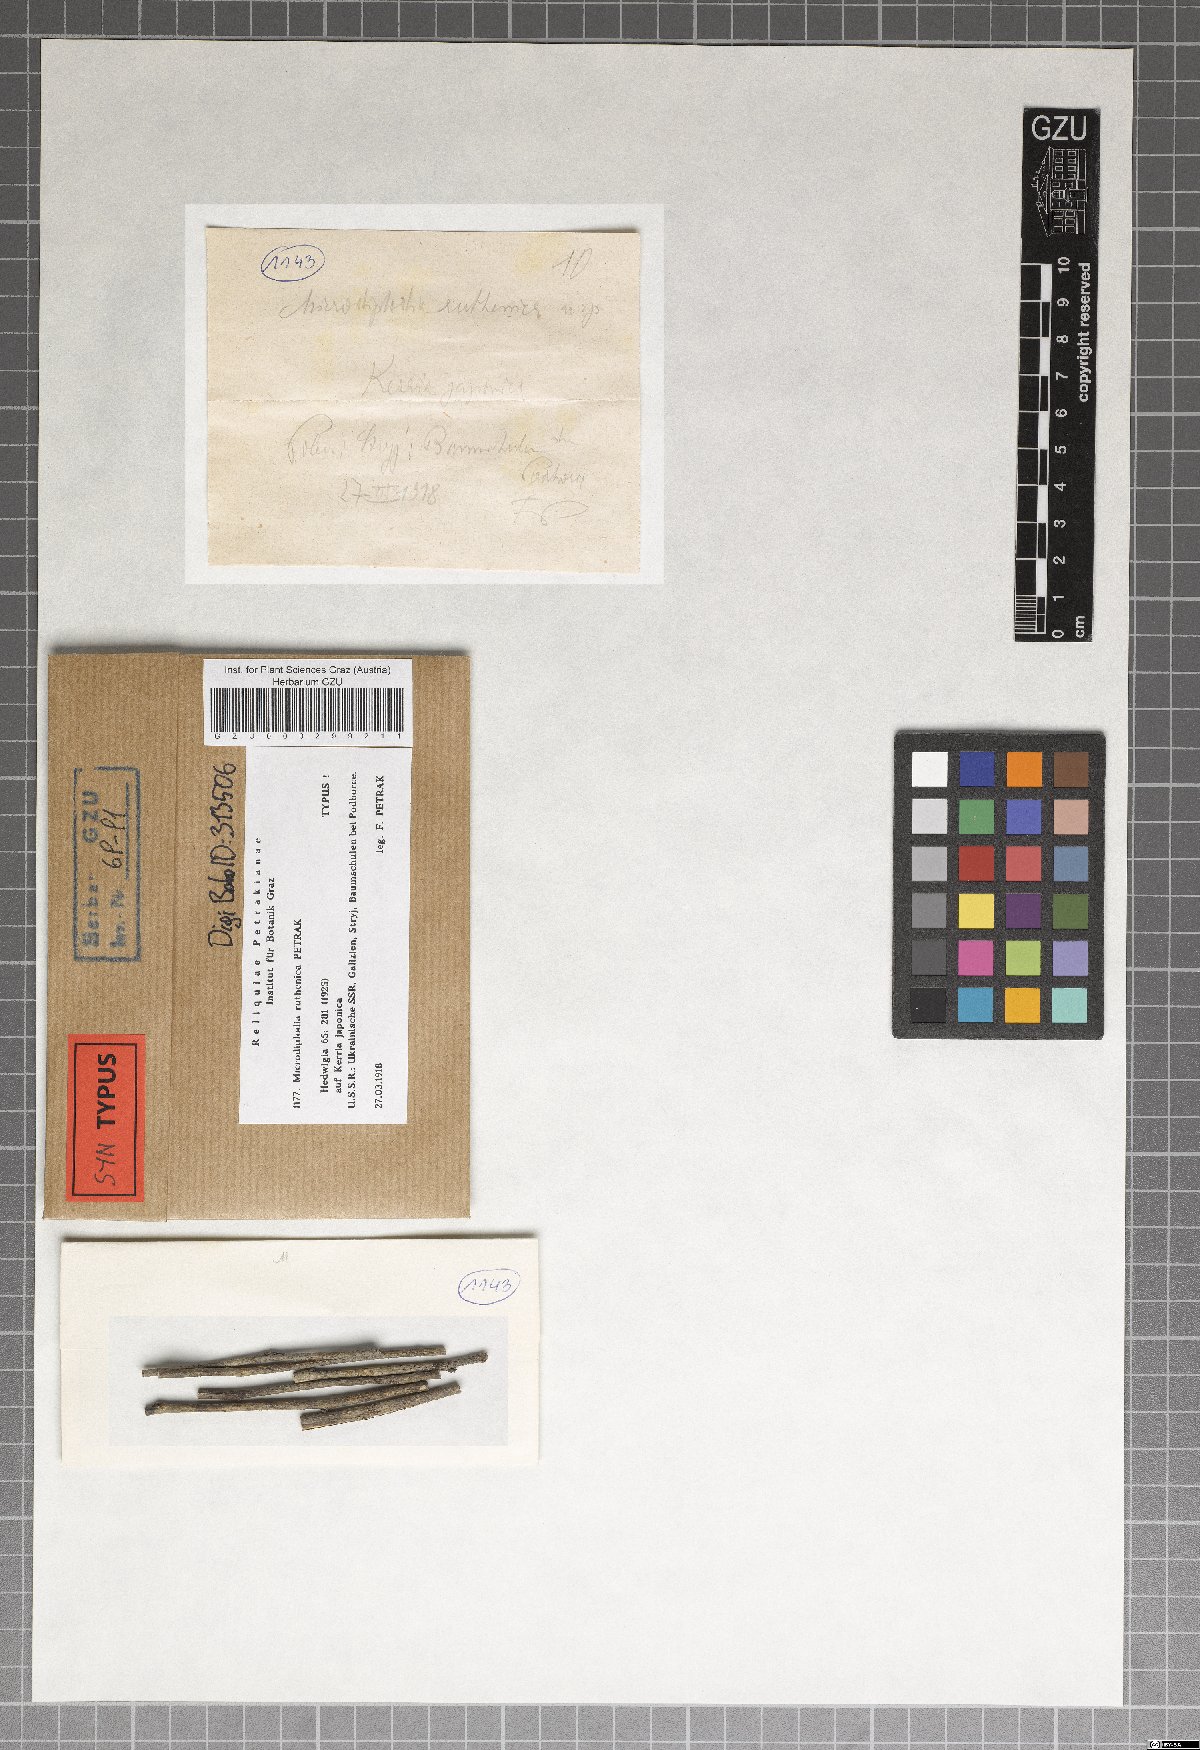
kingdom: Fungi
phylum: Ascomycota
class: Dothideomycetes
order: Botryosphaeriales
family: Botryosphaeriaceae
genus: Microdiplodia
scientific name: Microdiplodia ruthenica
